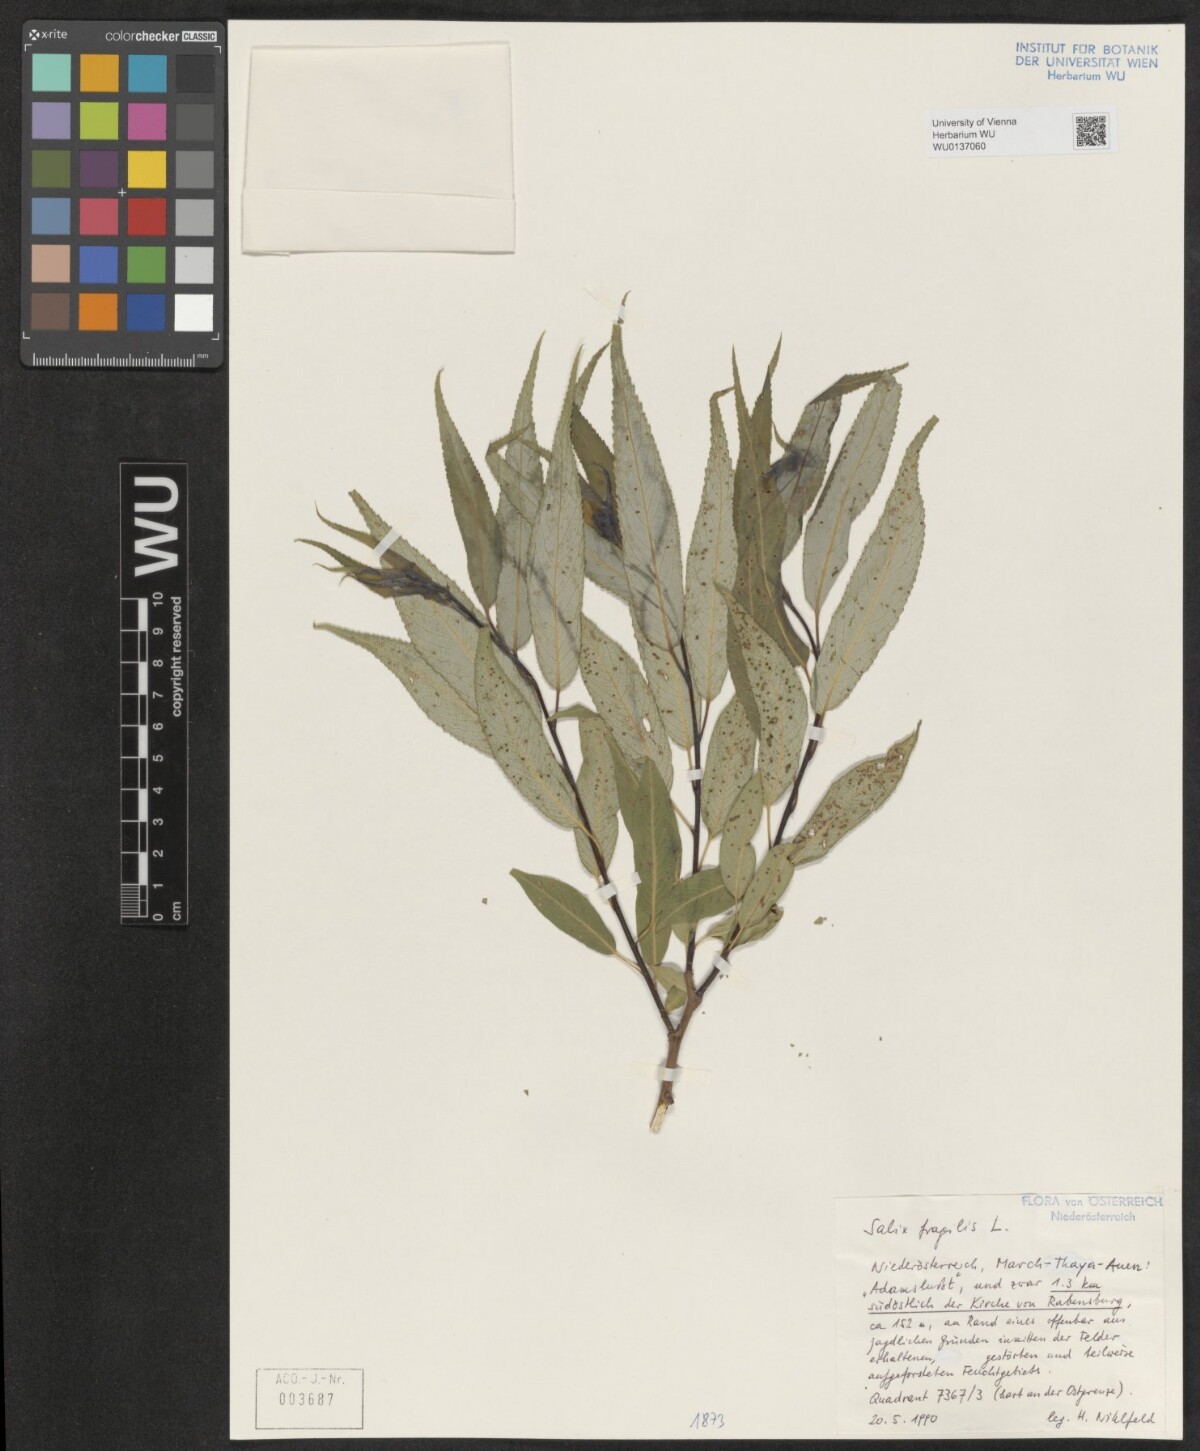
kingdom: Plantae
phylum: Tracheophyta
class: Magnoliopsida
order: Malpighiales
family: Salicaceae
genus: Salix
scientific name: Salix fragilis
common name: Crack willow
